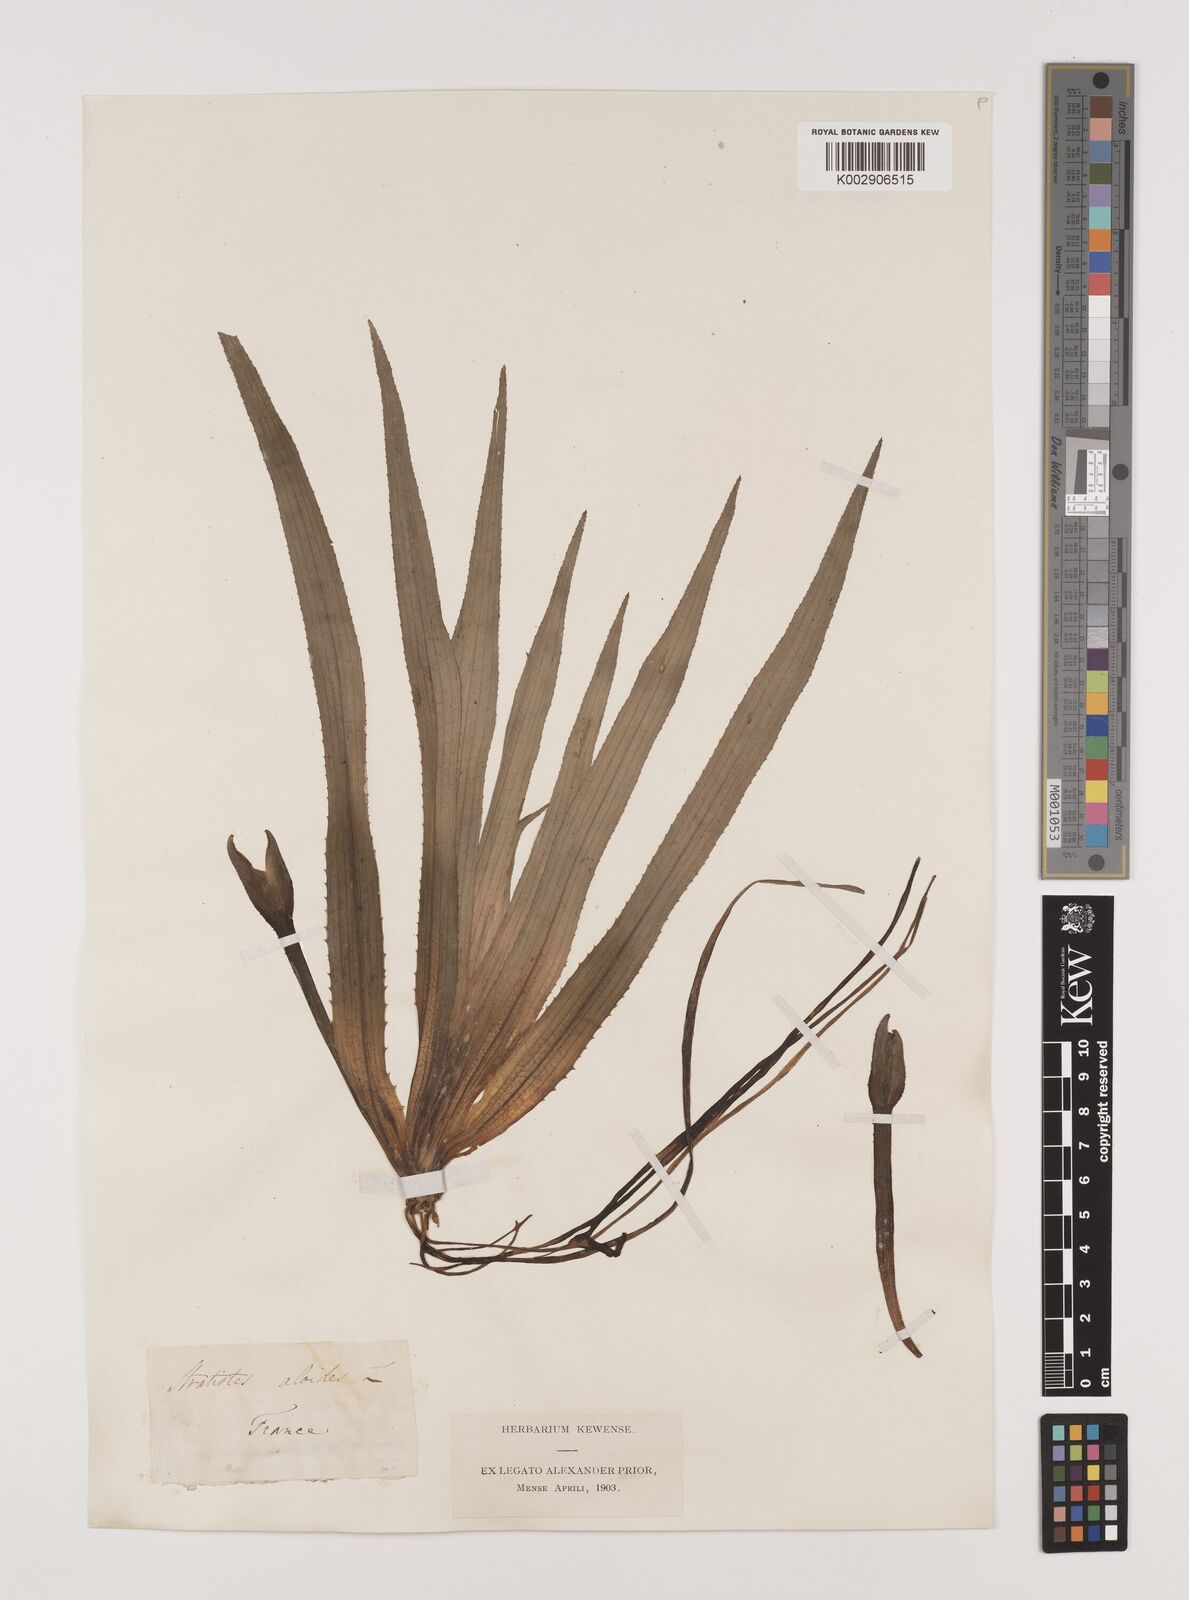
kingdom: Plantae
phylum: Tracheophyta
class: Liliopsida
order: Alismatales
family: Hydrocharitaceae
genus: Stratiotes
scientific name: Stratiotes aloides
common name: Water-soldier
